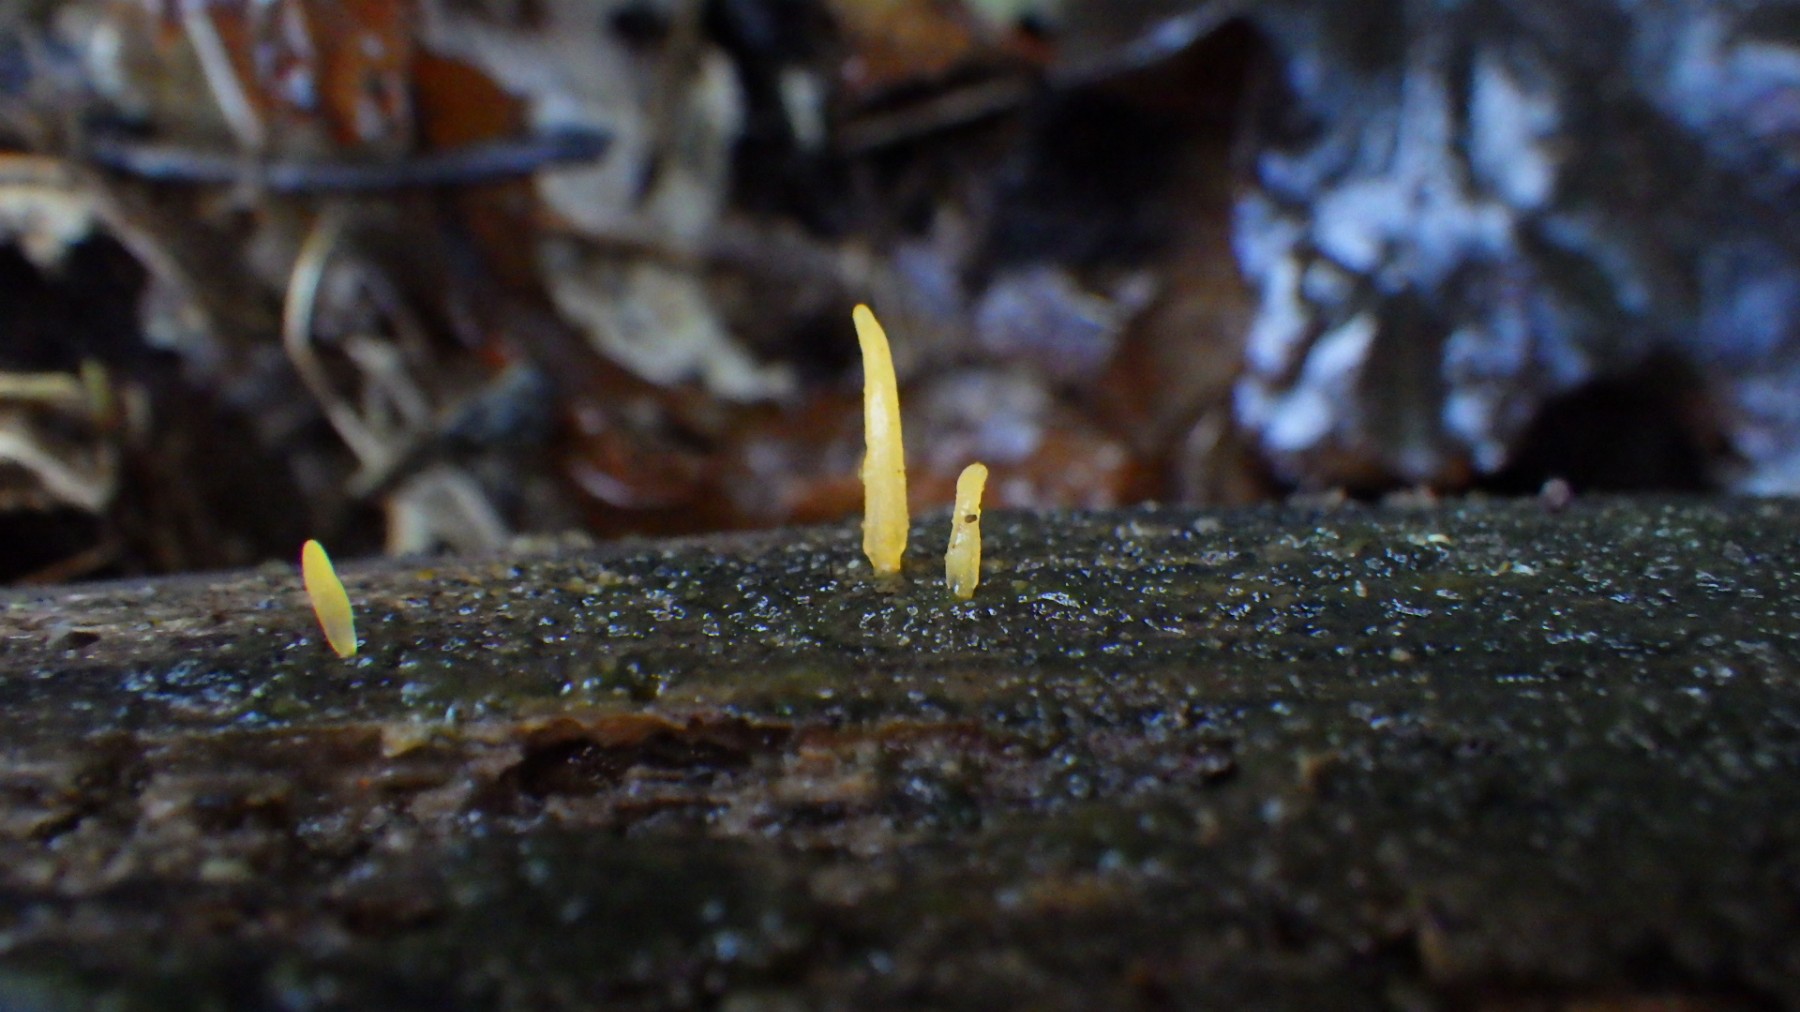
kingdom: Fungi
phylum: Basidiomycota
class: Dacrymycetes
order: Dacrymycetales
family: Dacrymycetaceae
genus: Calocera
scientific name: Calocera cornea
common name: liden guldgaffel
